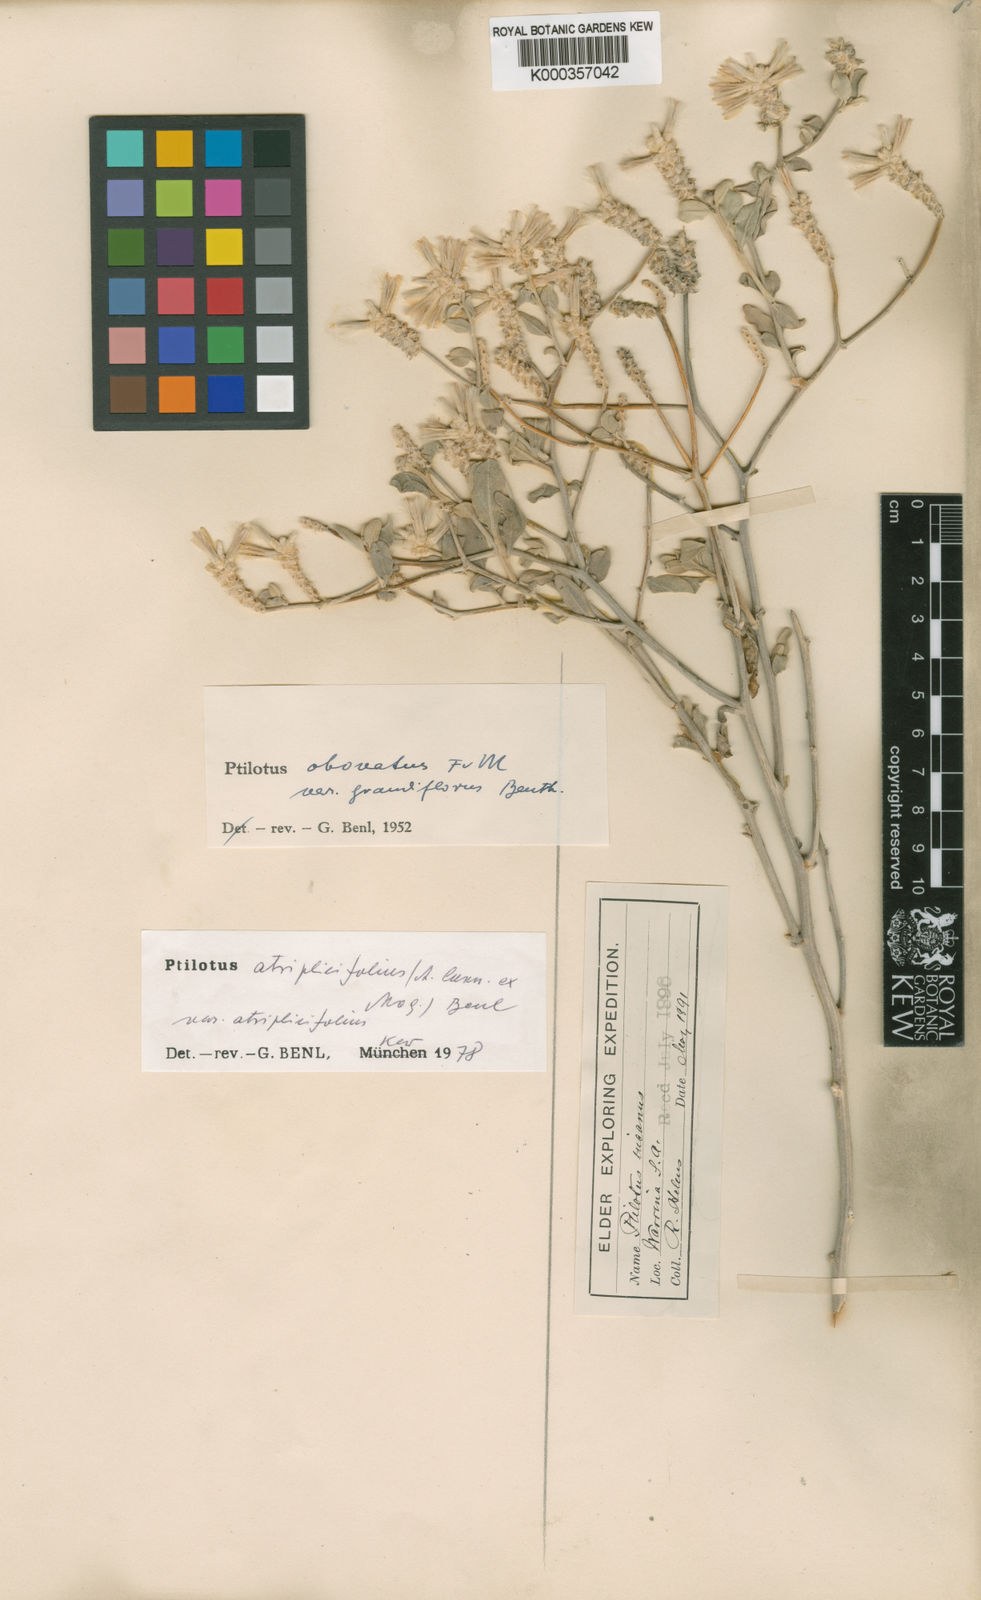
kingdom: Plantae
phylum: Tracheophyta
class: Magnoliopsida
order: Caryophyllales
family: Amaranthaceae
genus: Ptilotus
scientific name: Ptilotus
